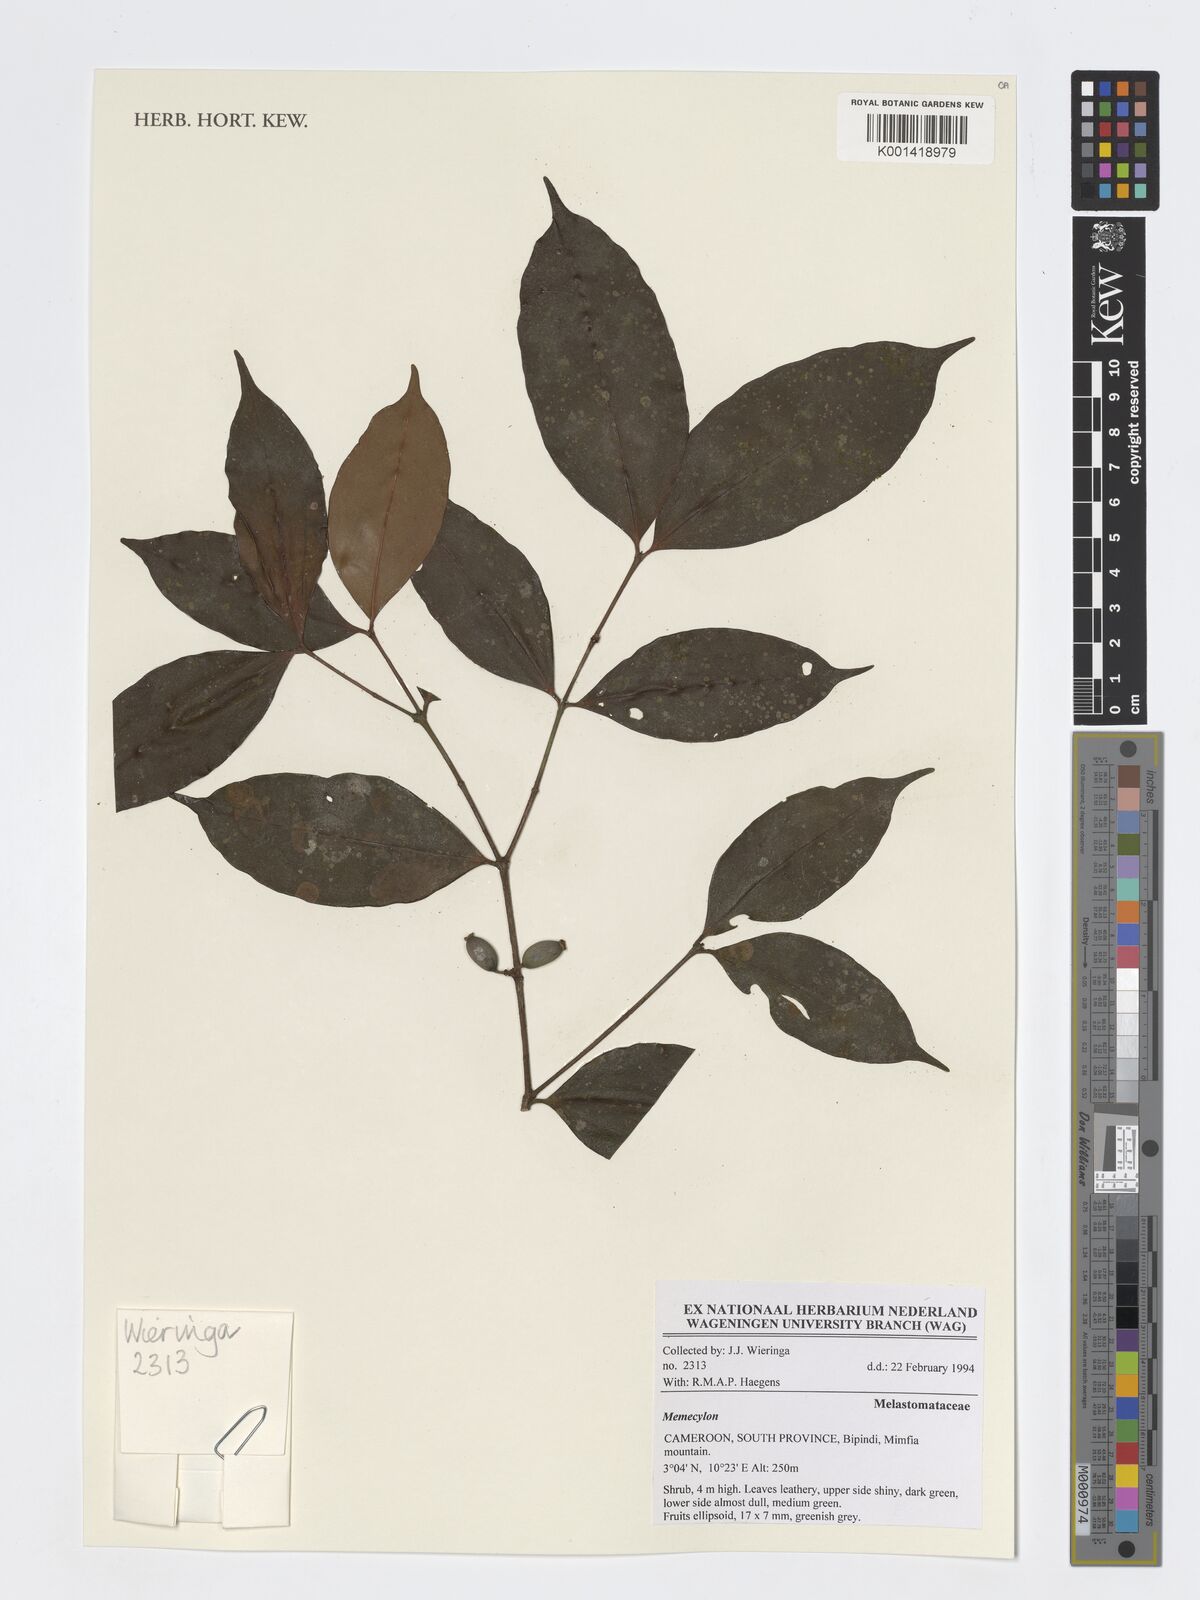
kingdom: Plantae
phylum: Tracheophyta
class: Magnoliopsida
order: Myrtales
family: Melastomataceae
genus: Memecylon
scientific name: Memecylon
